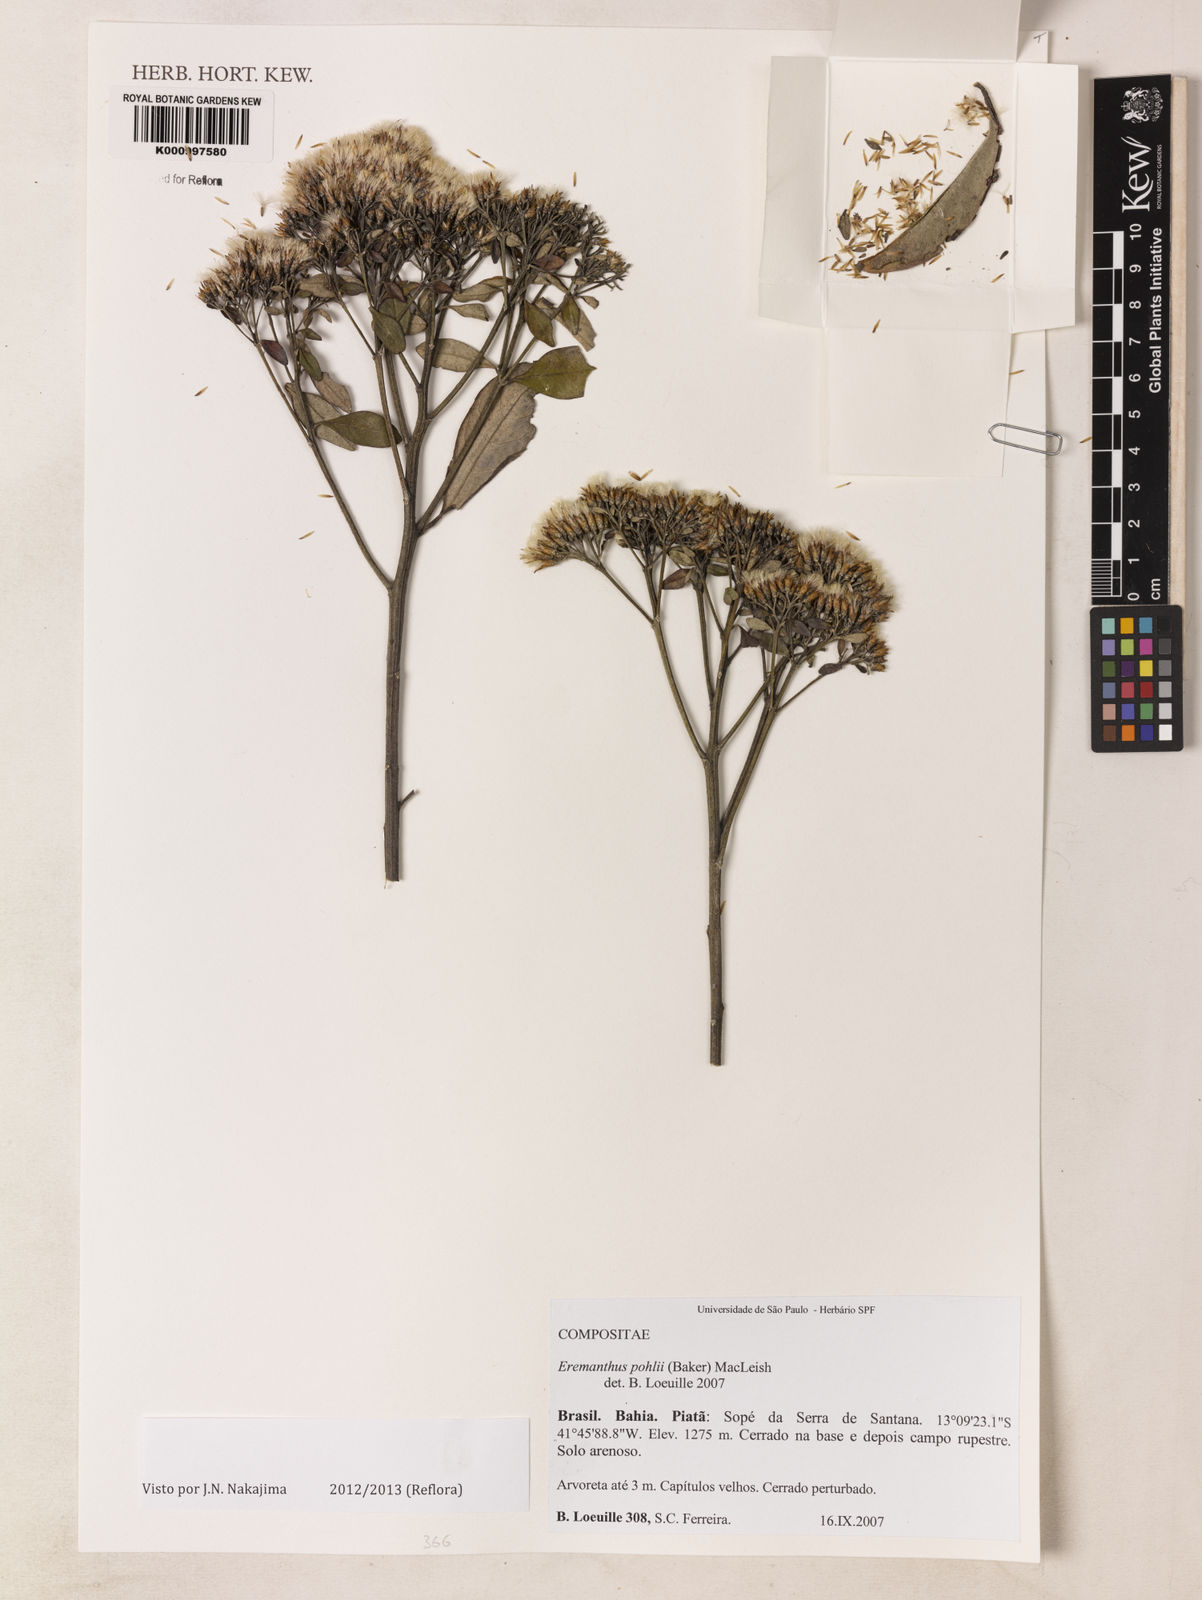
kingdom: Plantae
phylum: Tracheophyta
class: Magnoliopsida
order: Asterales
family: Asteraceae
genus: Eremanthus
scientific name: Eremanthus capitatus
